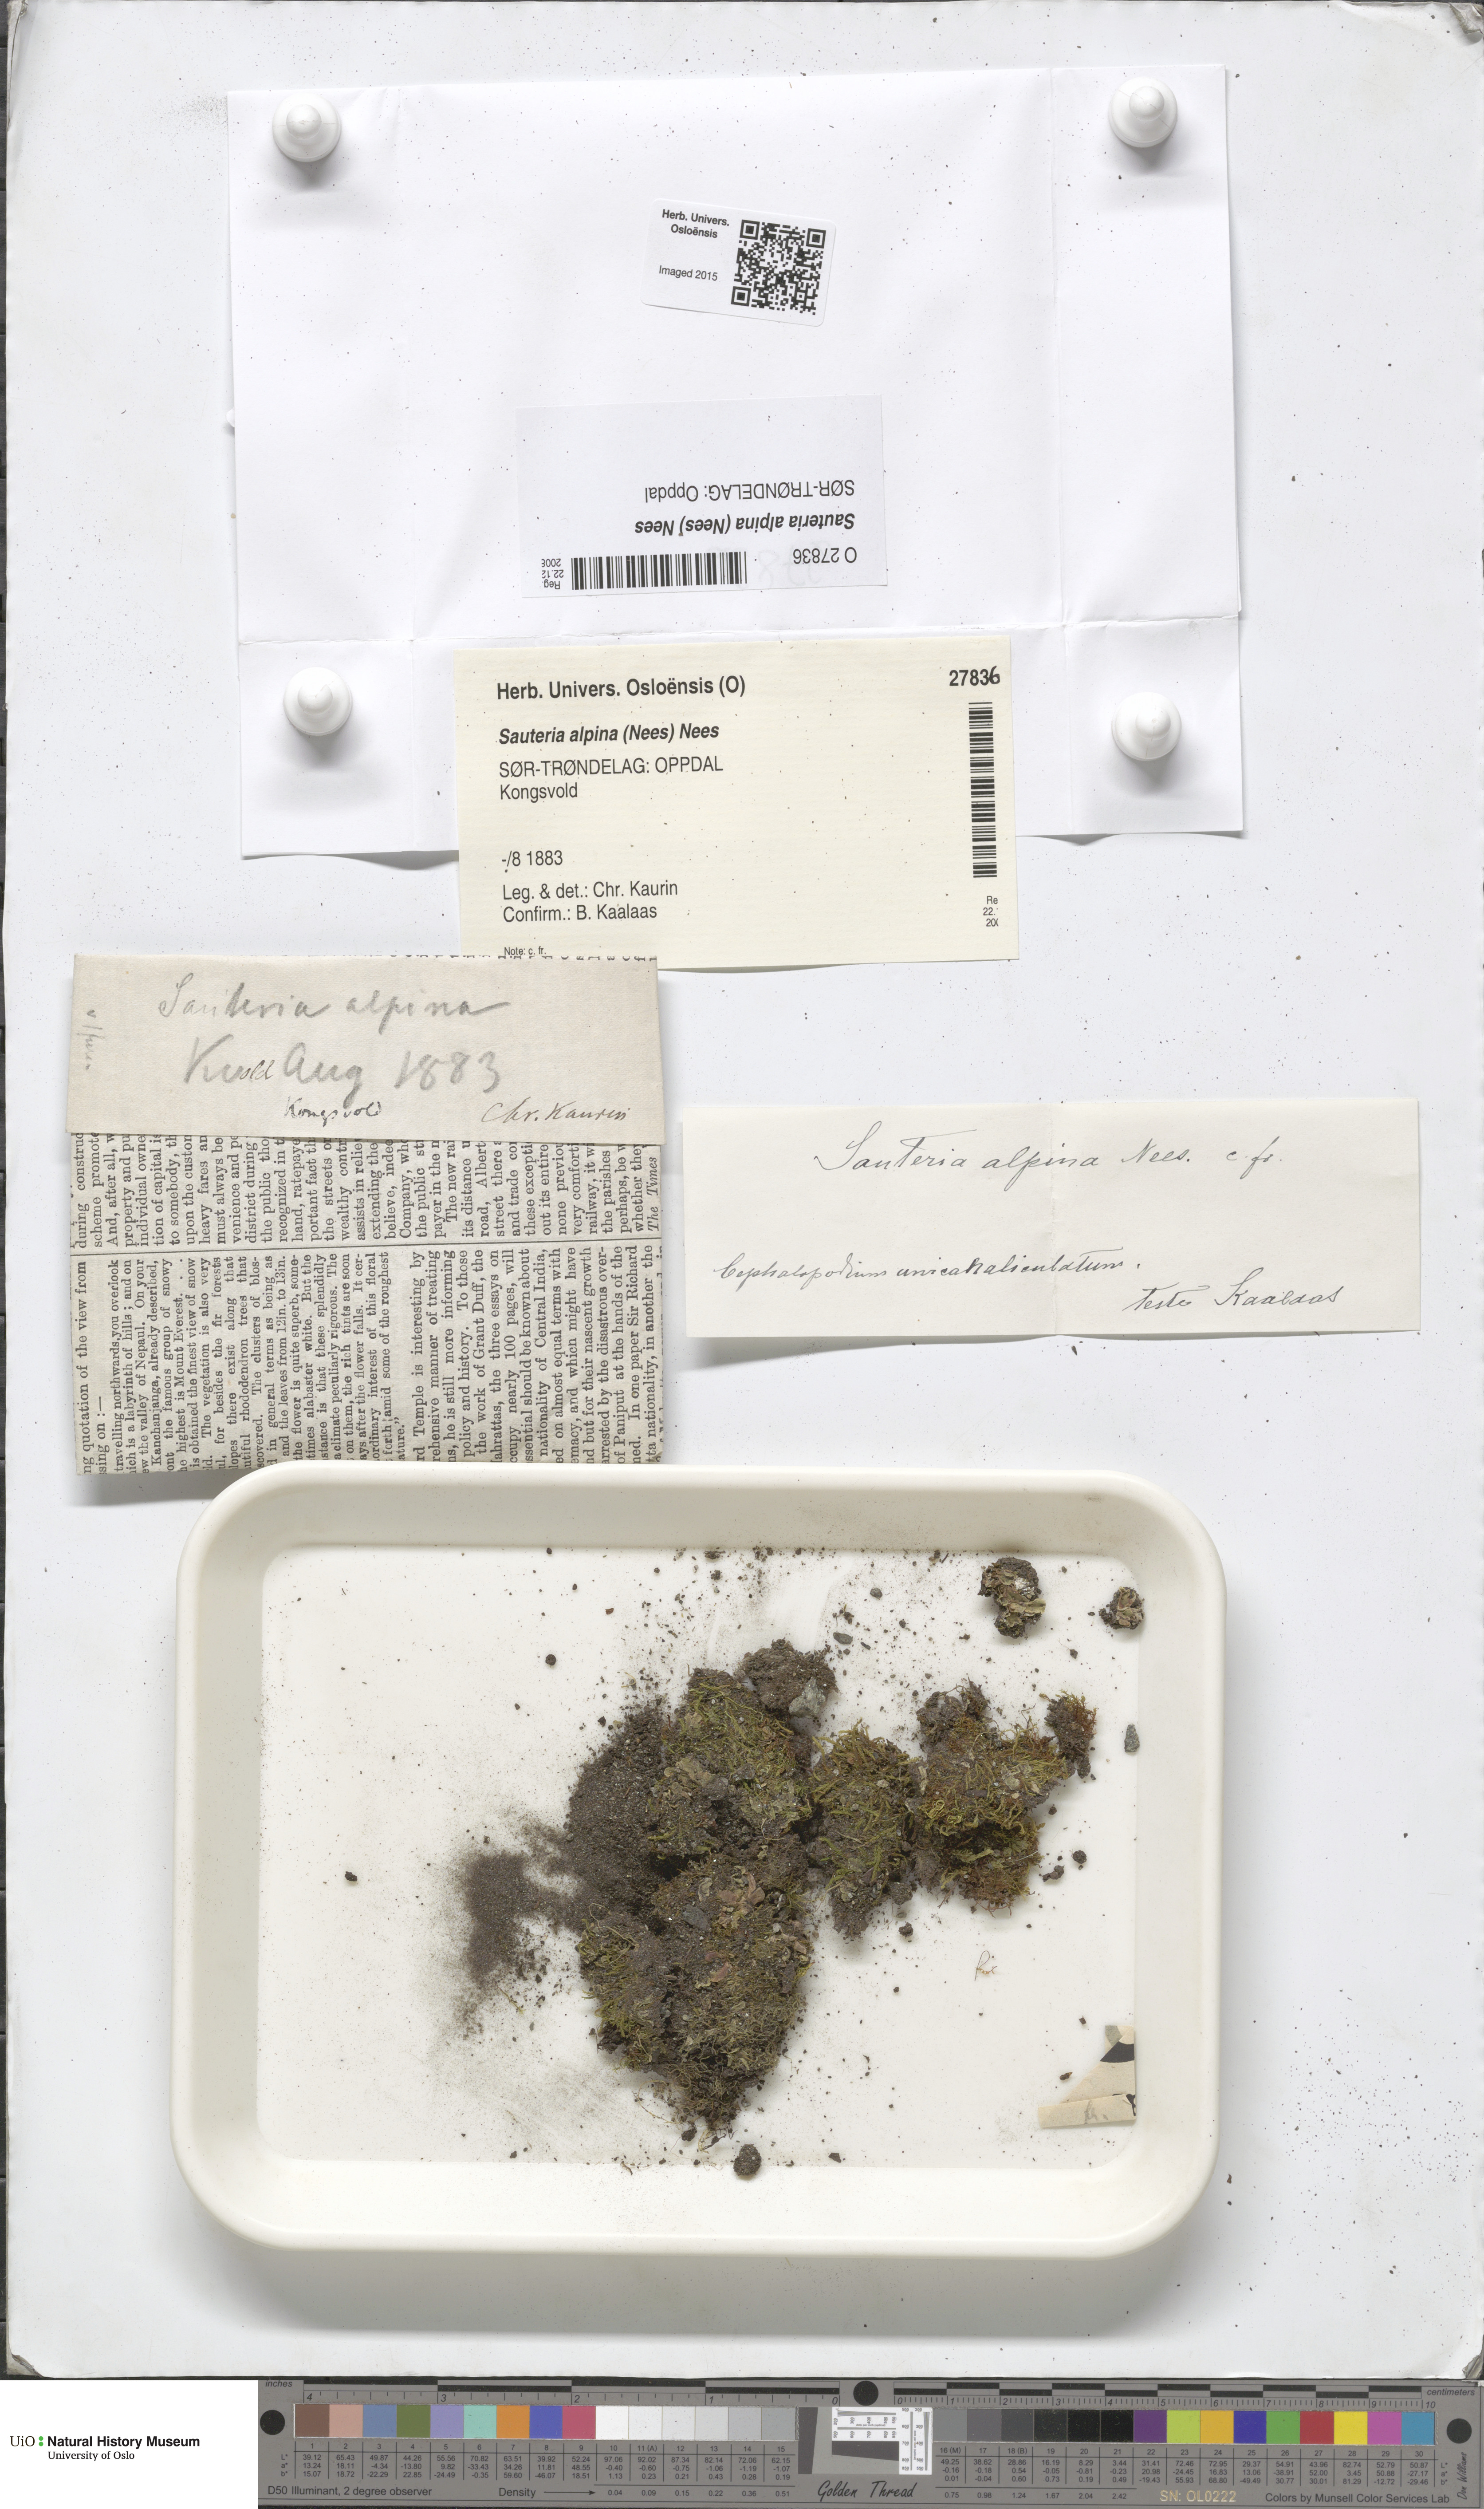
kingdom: Plantae
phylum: Marchantiophyta
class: Marchantiopsida
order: Marchantiales
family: Cleveaceae
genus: Sauteria
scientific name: Sauteria alpina
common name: Snow lungwort
